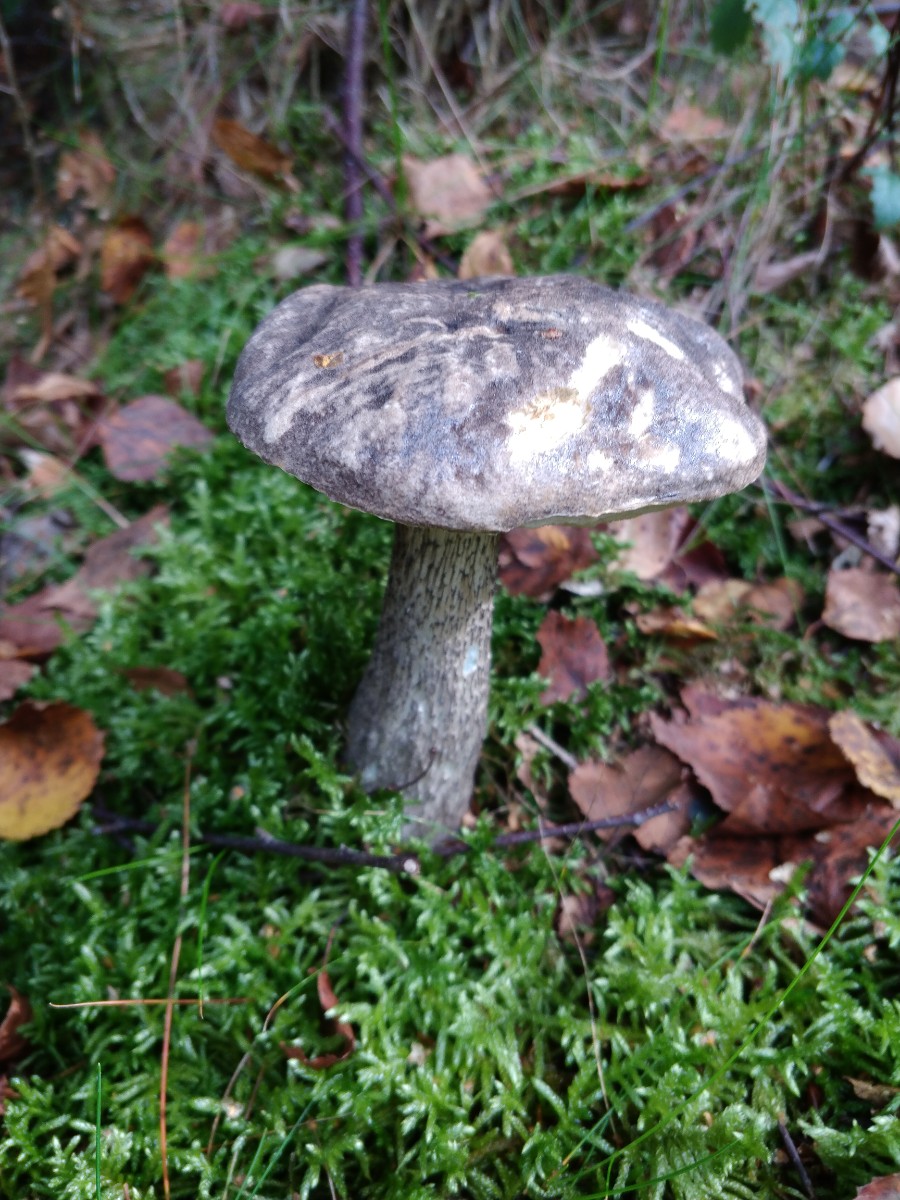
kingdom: Fungi
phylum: Basidiomycota
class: Agaricomycetes
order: Boletales
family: Boletaceae
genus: Leccinum
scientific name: Leccinum variicolor
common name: flammet skælrørhat
